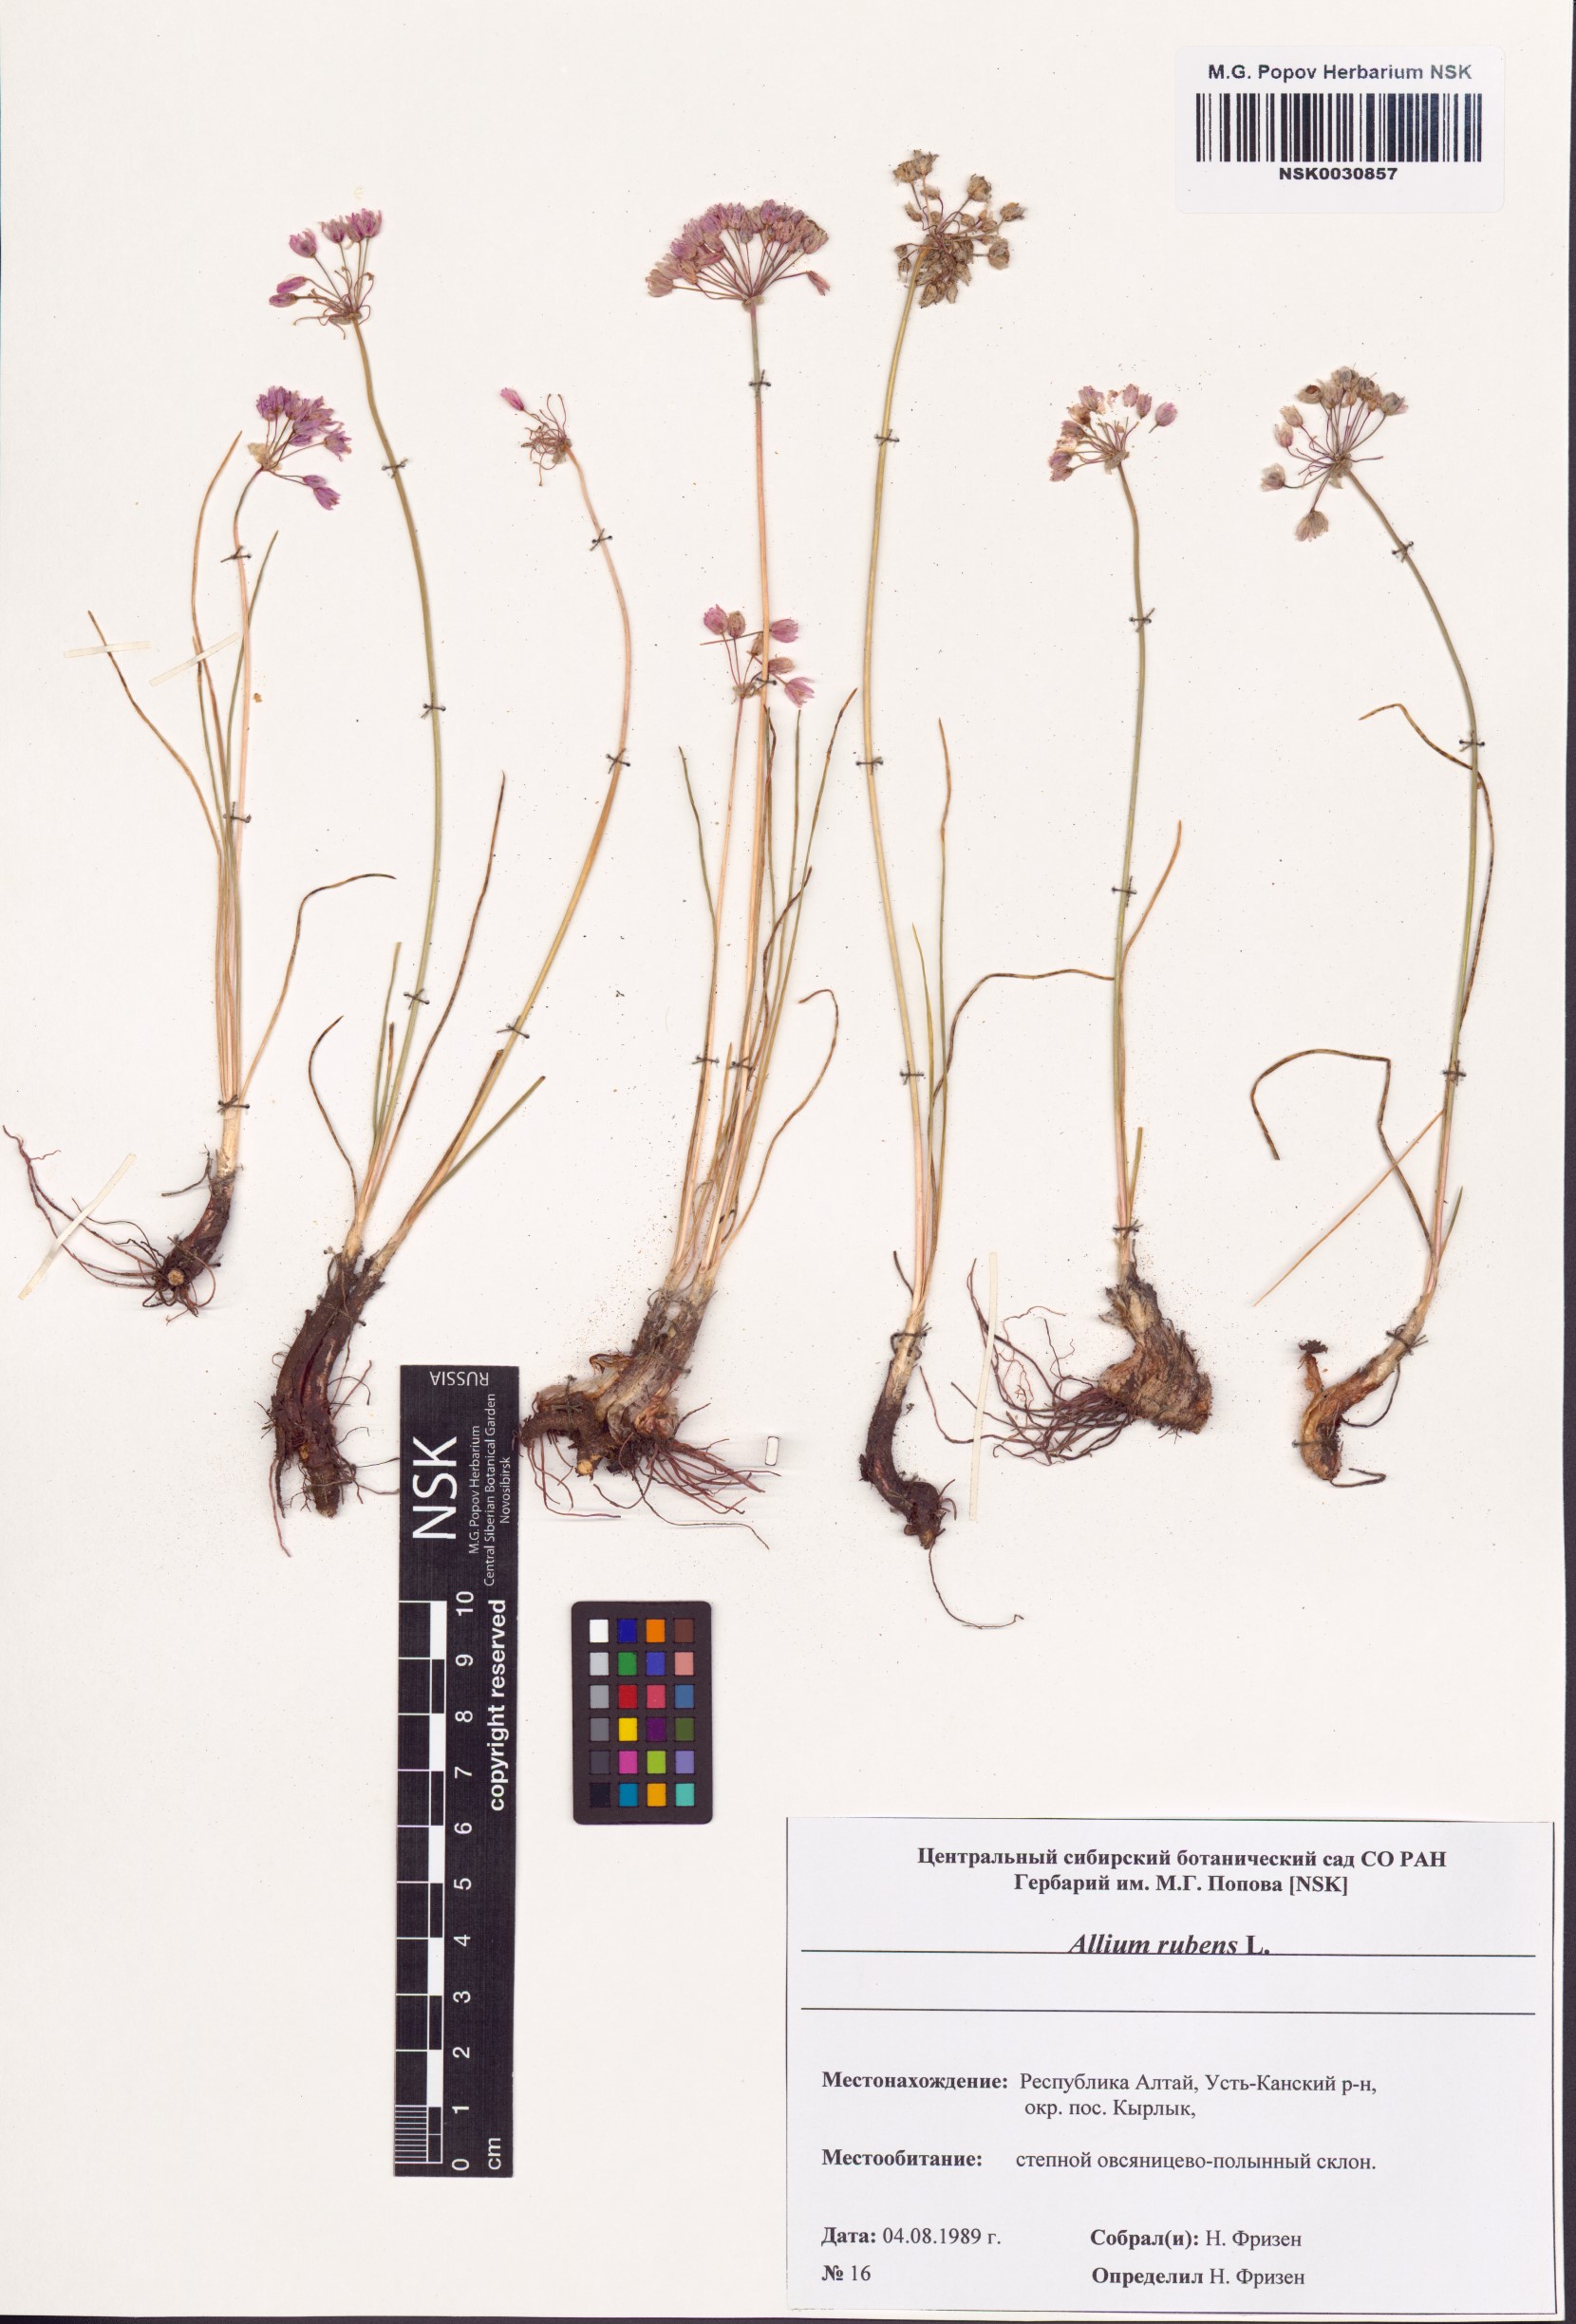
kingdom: Plantae
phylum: Tracheophyta
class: Liliopsida
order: Asparagales
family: Amaryllidaceae
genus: Allium
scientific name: Allium rubens
